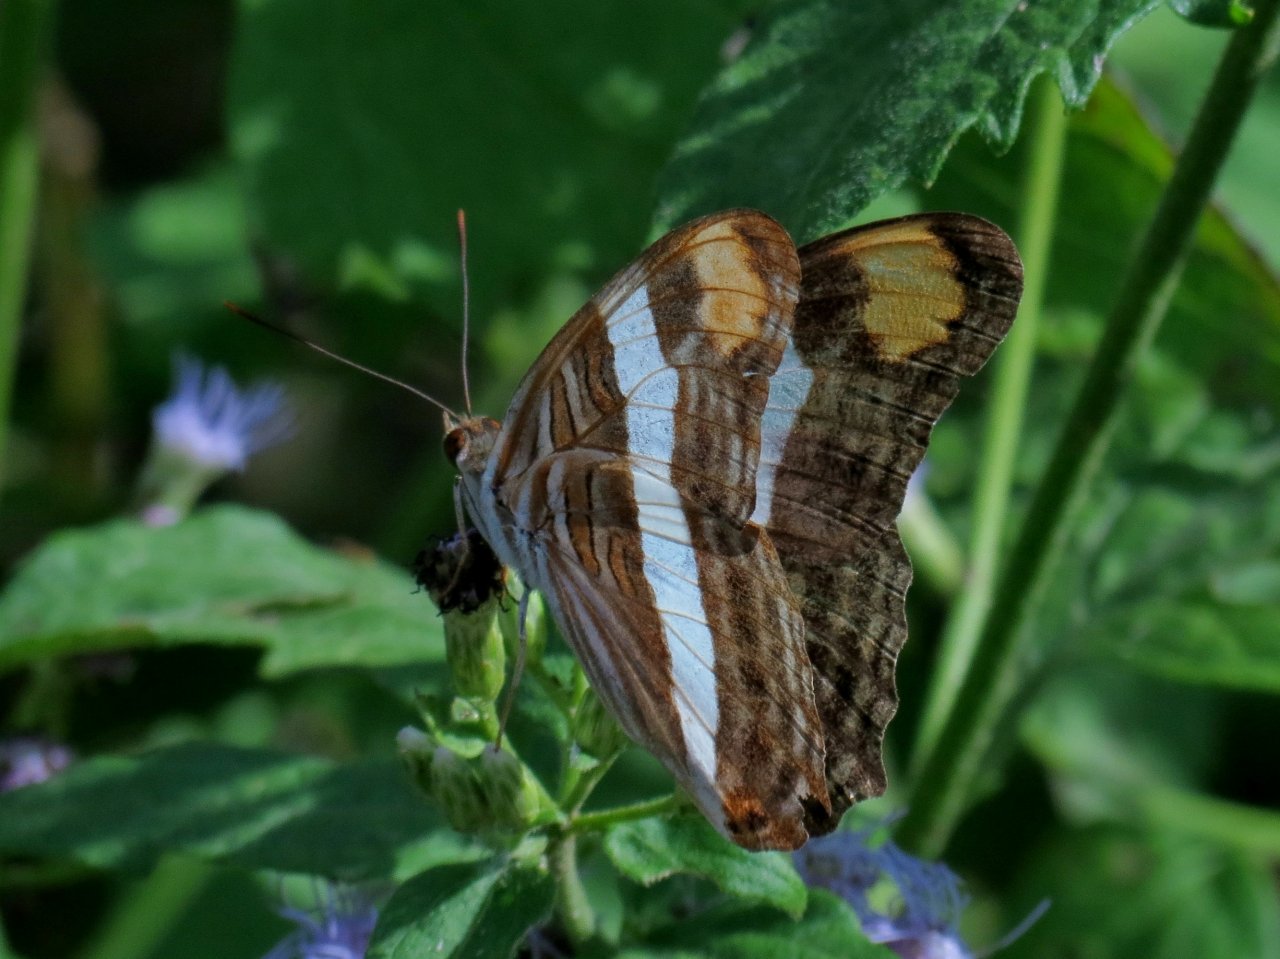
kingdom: Animalia
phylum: Arthropoda
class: Insecta
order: Lepidoptera
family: Nymphalidae
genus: Limenitis
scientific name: Limenitis fessonia
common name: Band-celled Sister
